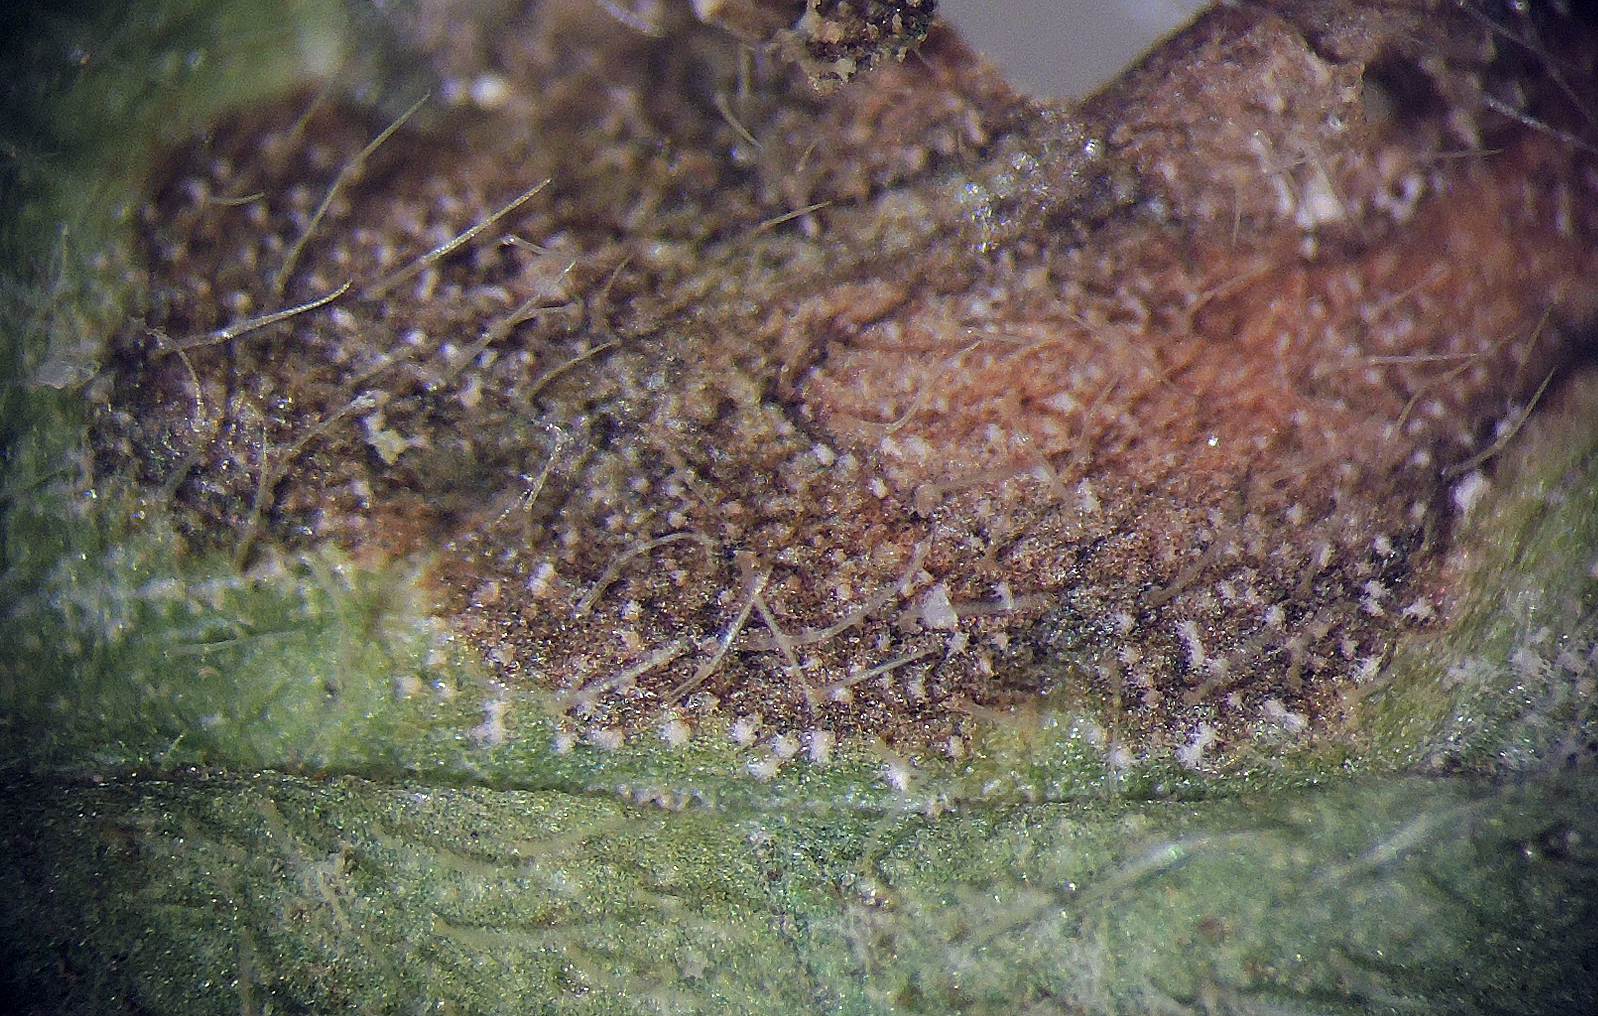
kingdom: Fungi
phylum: Ascomycota
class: Dothideomycetes
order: Mycosphaerellales
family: Mycosphaerellaceae
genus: Ramularia
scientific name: Ramularia lamii
